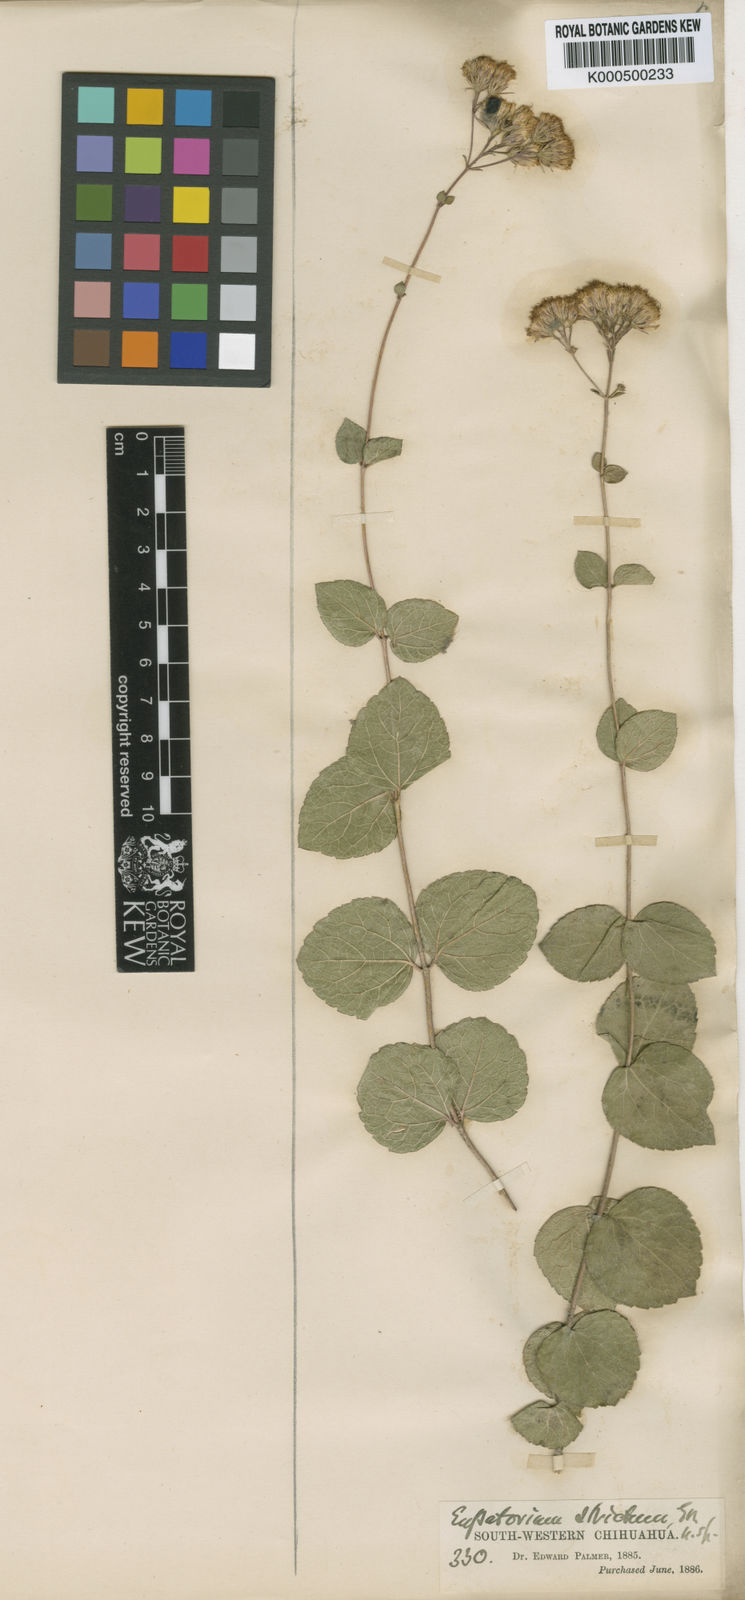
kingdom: Plantae
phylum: Tracheophyta
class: Magnoliopsida
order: Asterales
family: Asteraceae
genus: Ageratina
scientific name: Ageratina stricta
